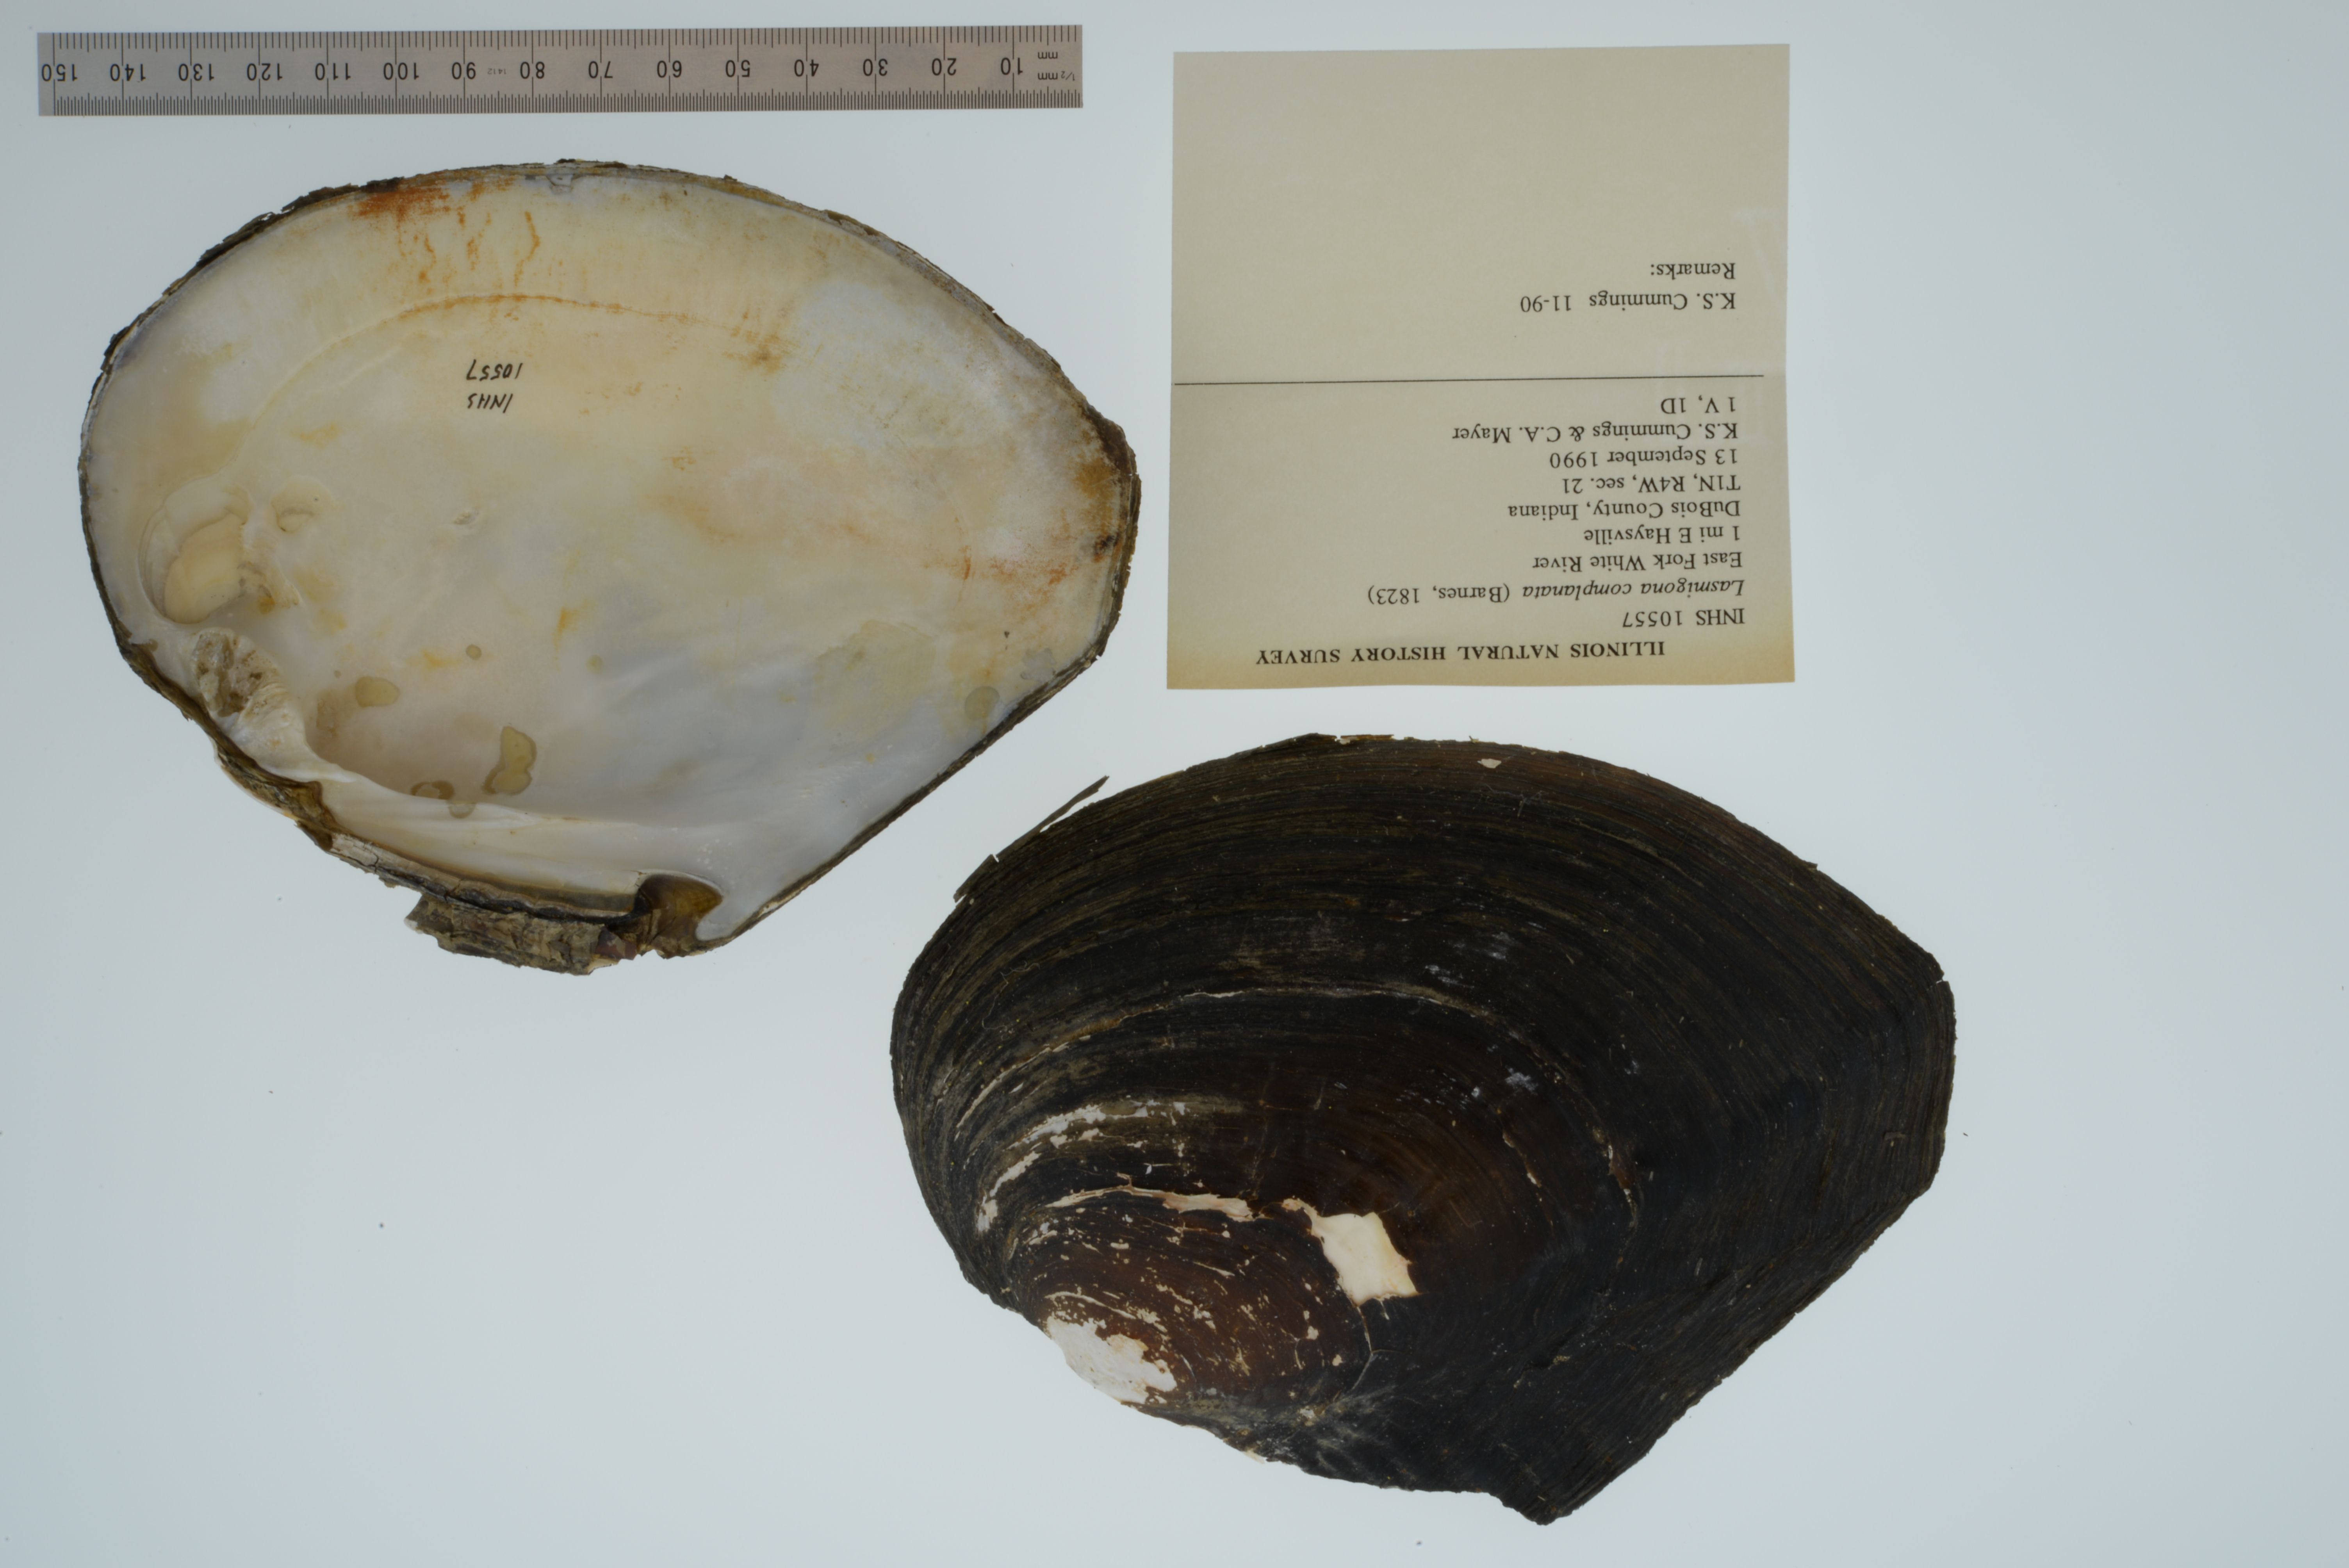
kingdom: Animalia
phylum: Mollusca
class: Bivalvia
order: Unionida
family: Unionidae
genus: Lasmigona
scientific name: Lasmigona complanata
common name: White heelsplitter
